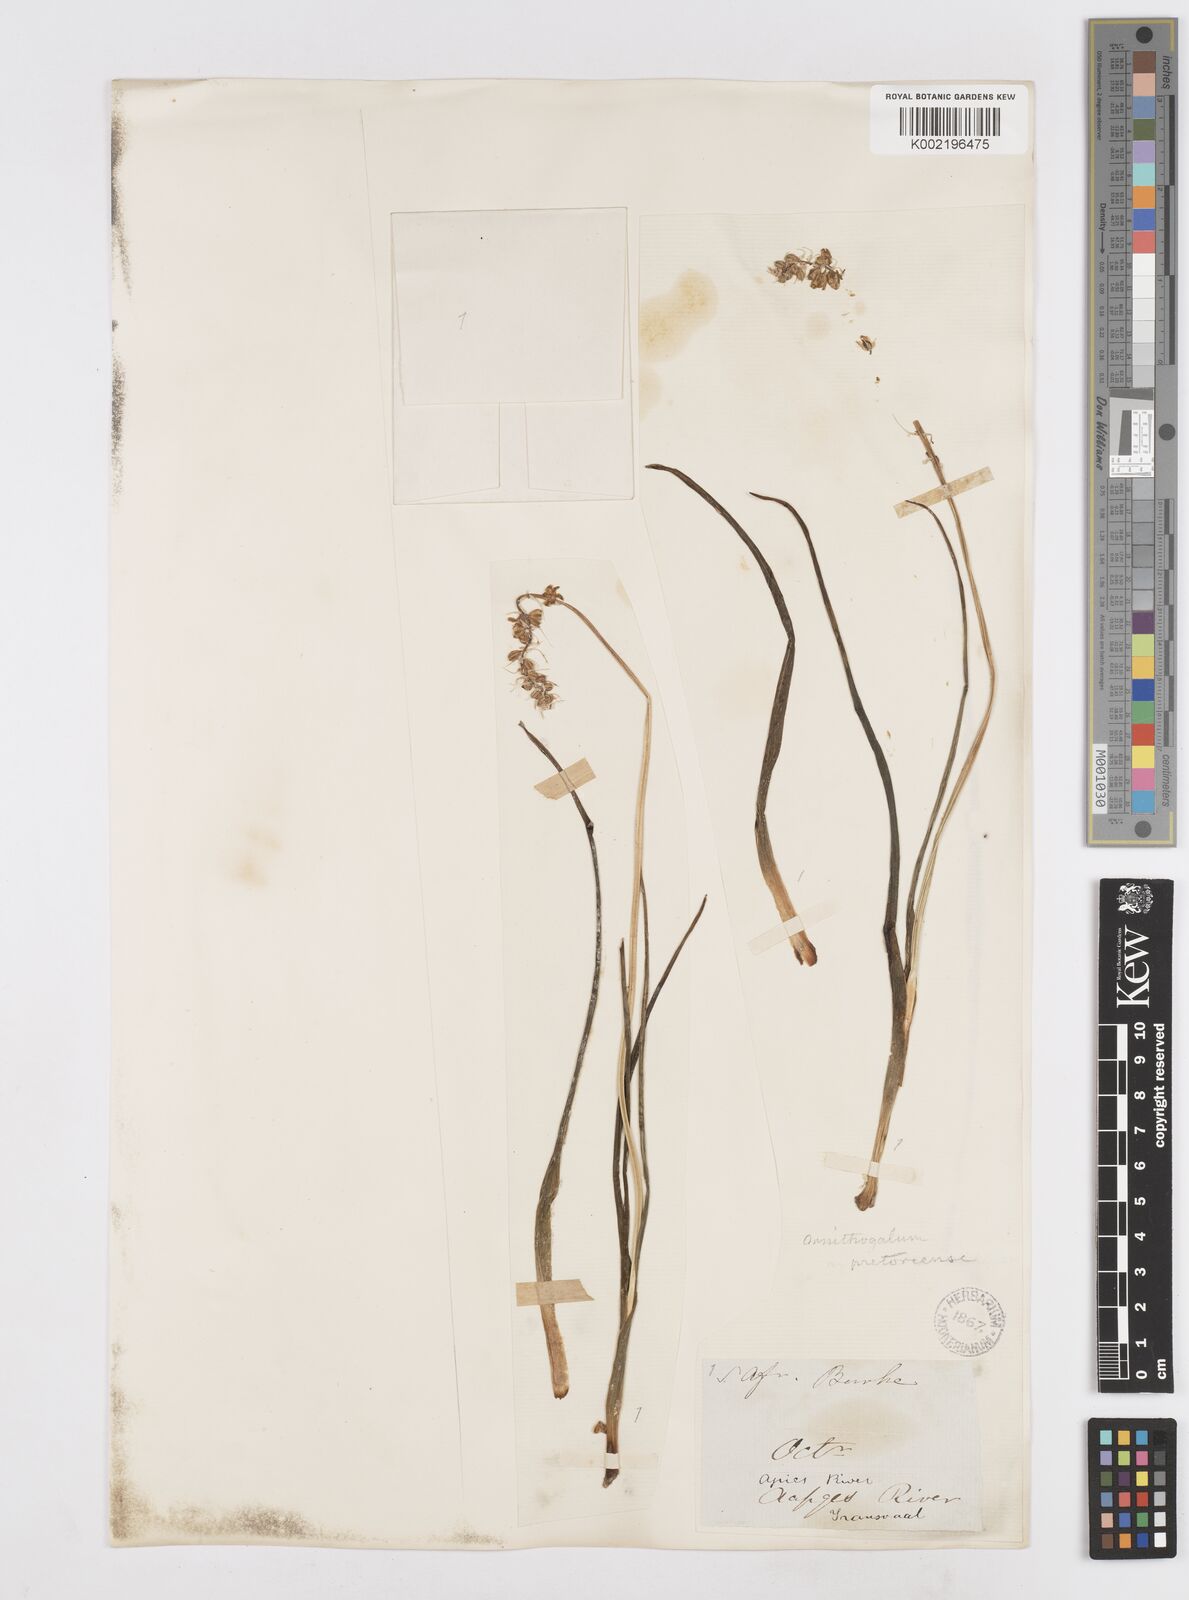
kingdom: Plantae
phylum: Tracheophyta
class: Liliopsida
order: Asparagales
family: Asparagaceae
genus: Albuca
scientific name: Albuca virens
